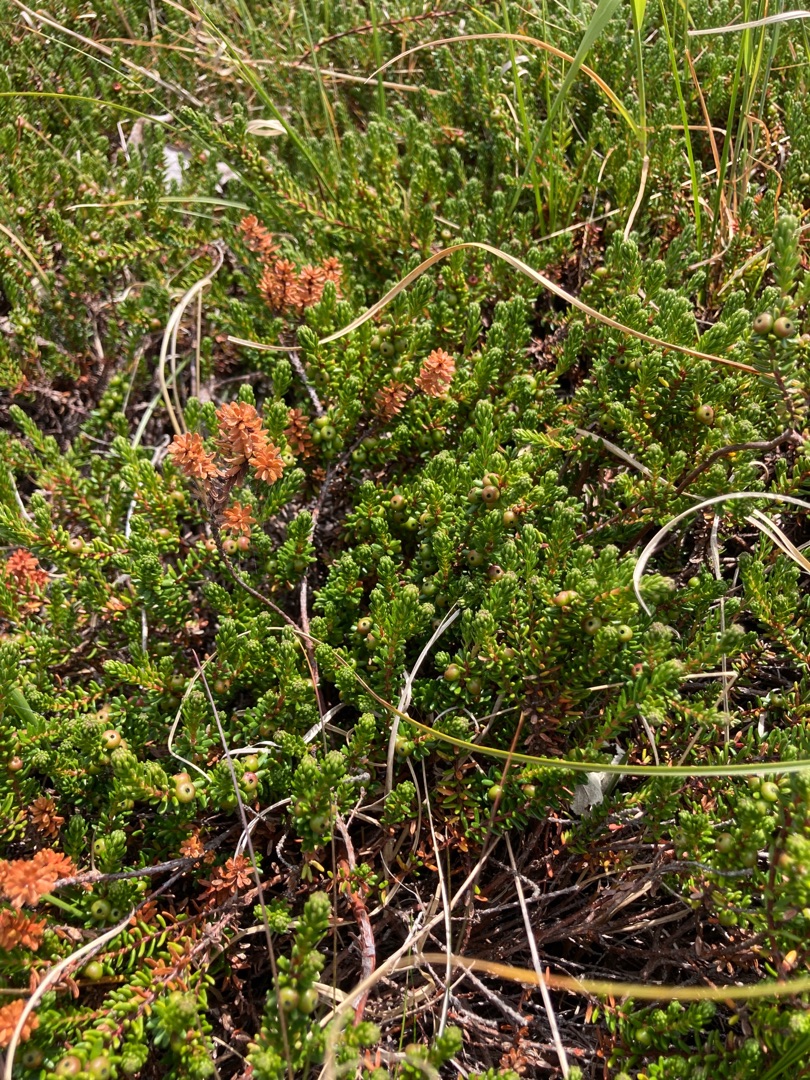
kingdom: Plantae
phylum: Tracheophyta
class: Magnoliopsida
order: Ericales
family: Ericaceae
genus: Empetrum
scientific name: Empetrum nigrum
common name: Revling
